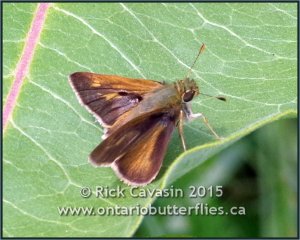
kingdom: Animalia
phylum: Arthropoda
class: Insecta
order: Lepidoptera
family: Hesperiidae
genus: Polites
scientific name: Polites egeremet
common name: Northern Broken-Dash
